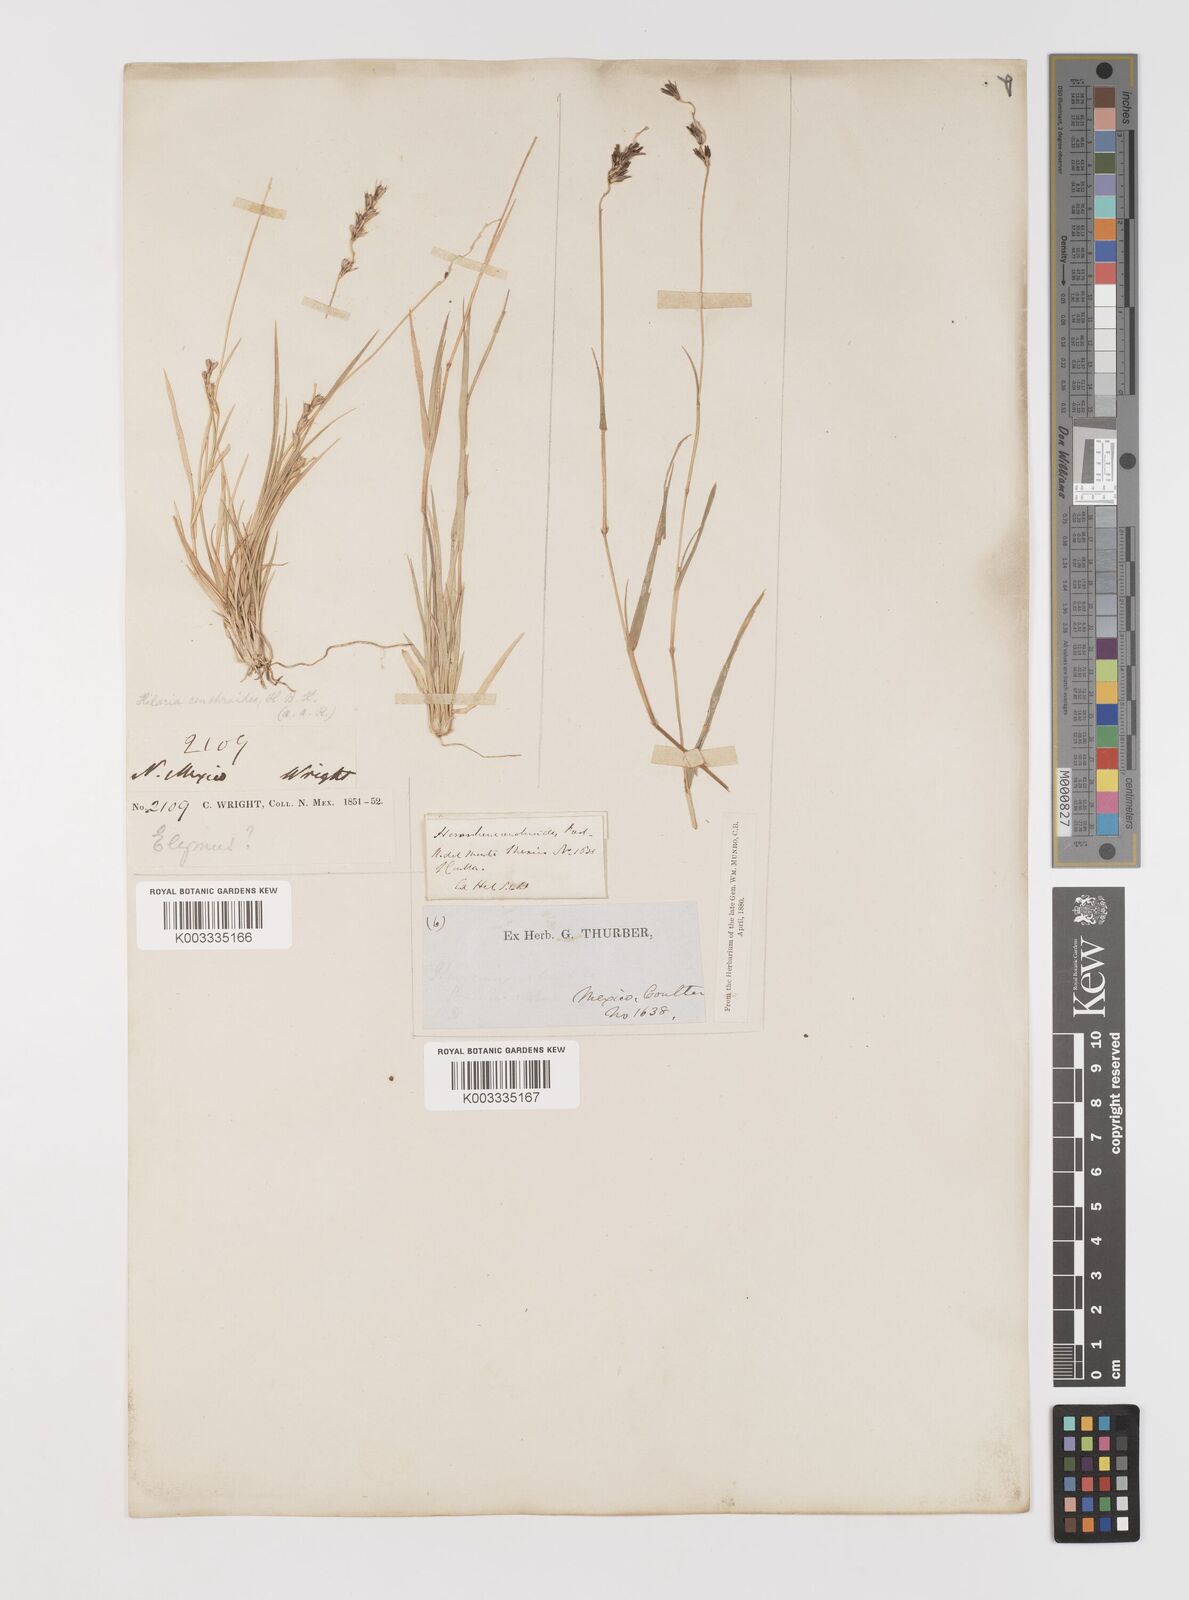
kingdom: Plantae
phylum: Tracheophyta
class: Liliopsida
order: Poales
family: Poaceae
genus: Hilaria
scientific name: Hilaria cenchroides
